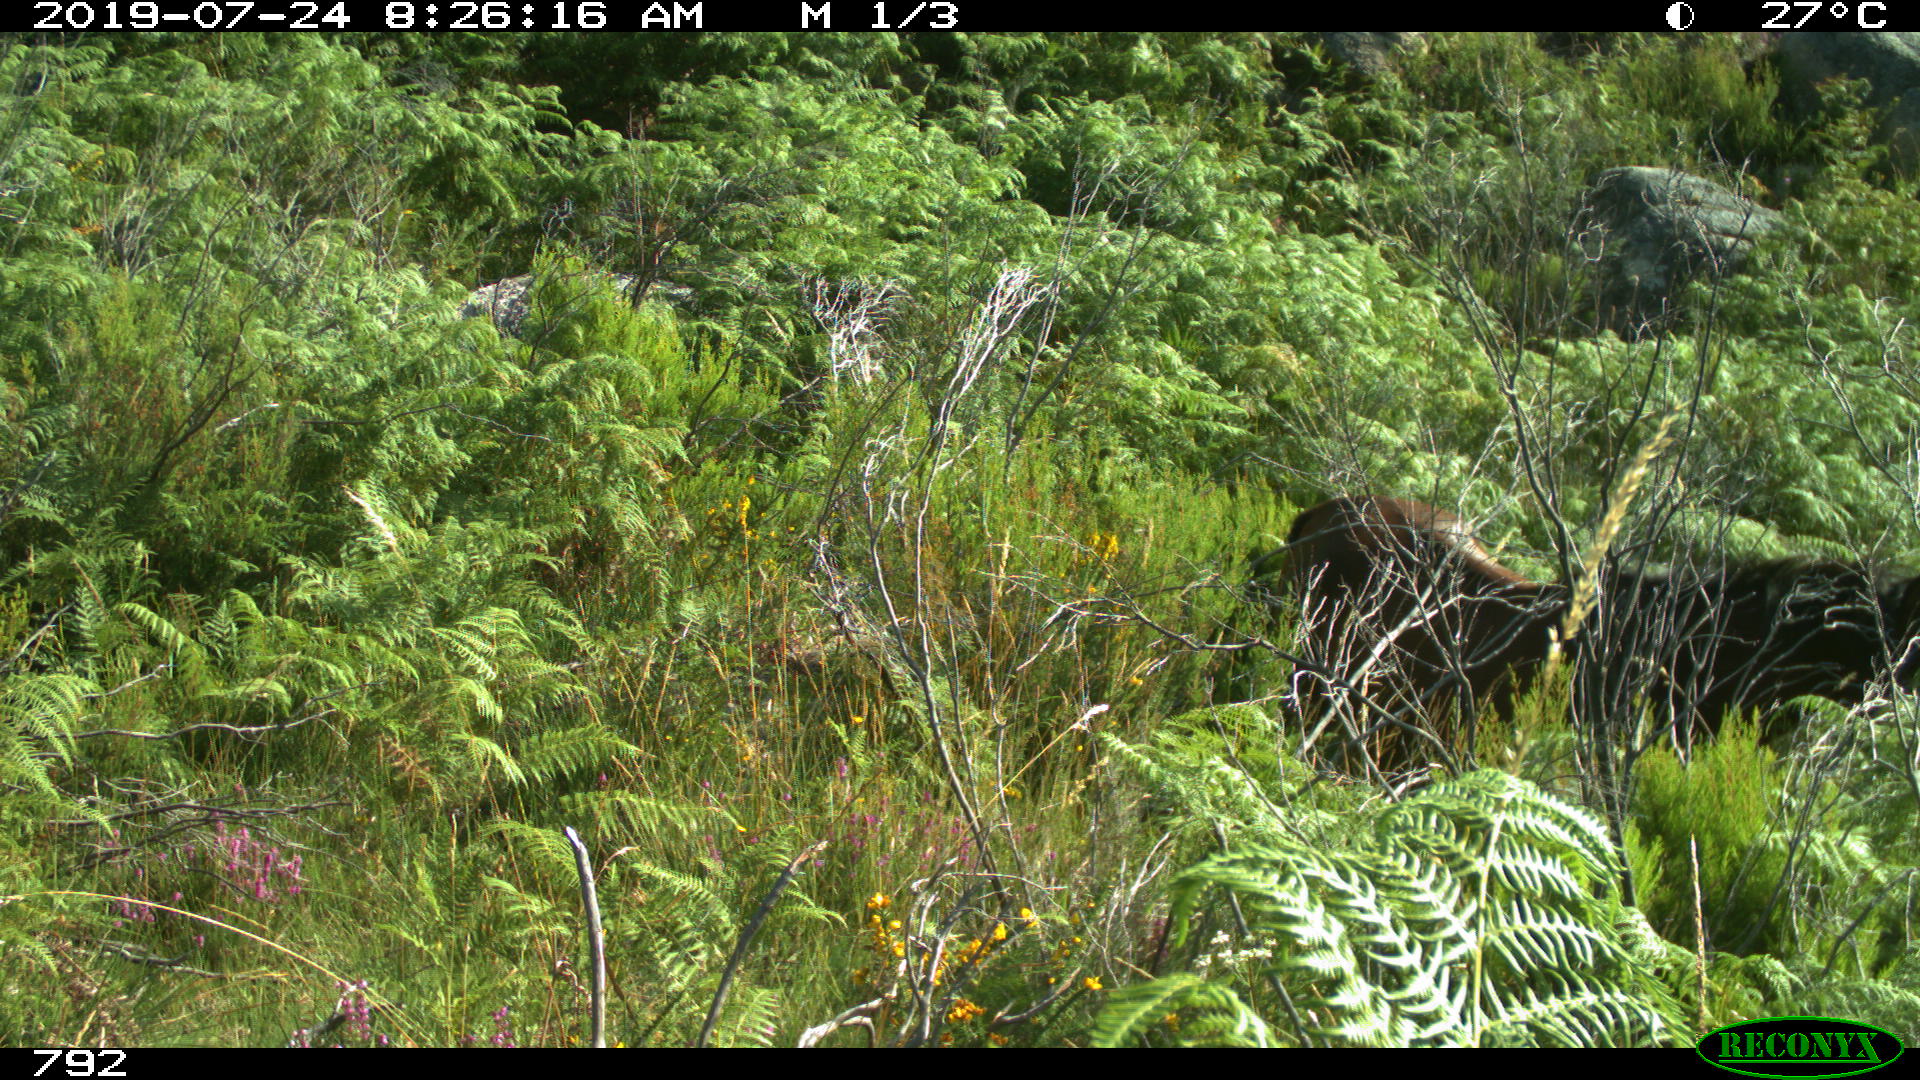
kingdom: Animalia
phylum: Chordata
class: Mammalia
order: Perissodactyla
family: Equidae
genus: Equus
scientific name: Equus caballus
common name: Horse
